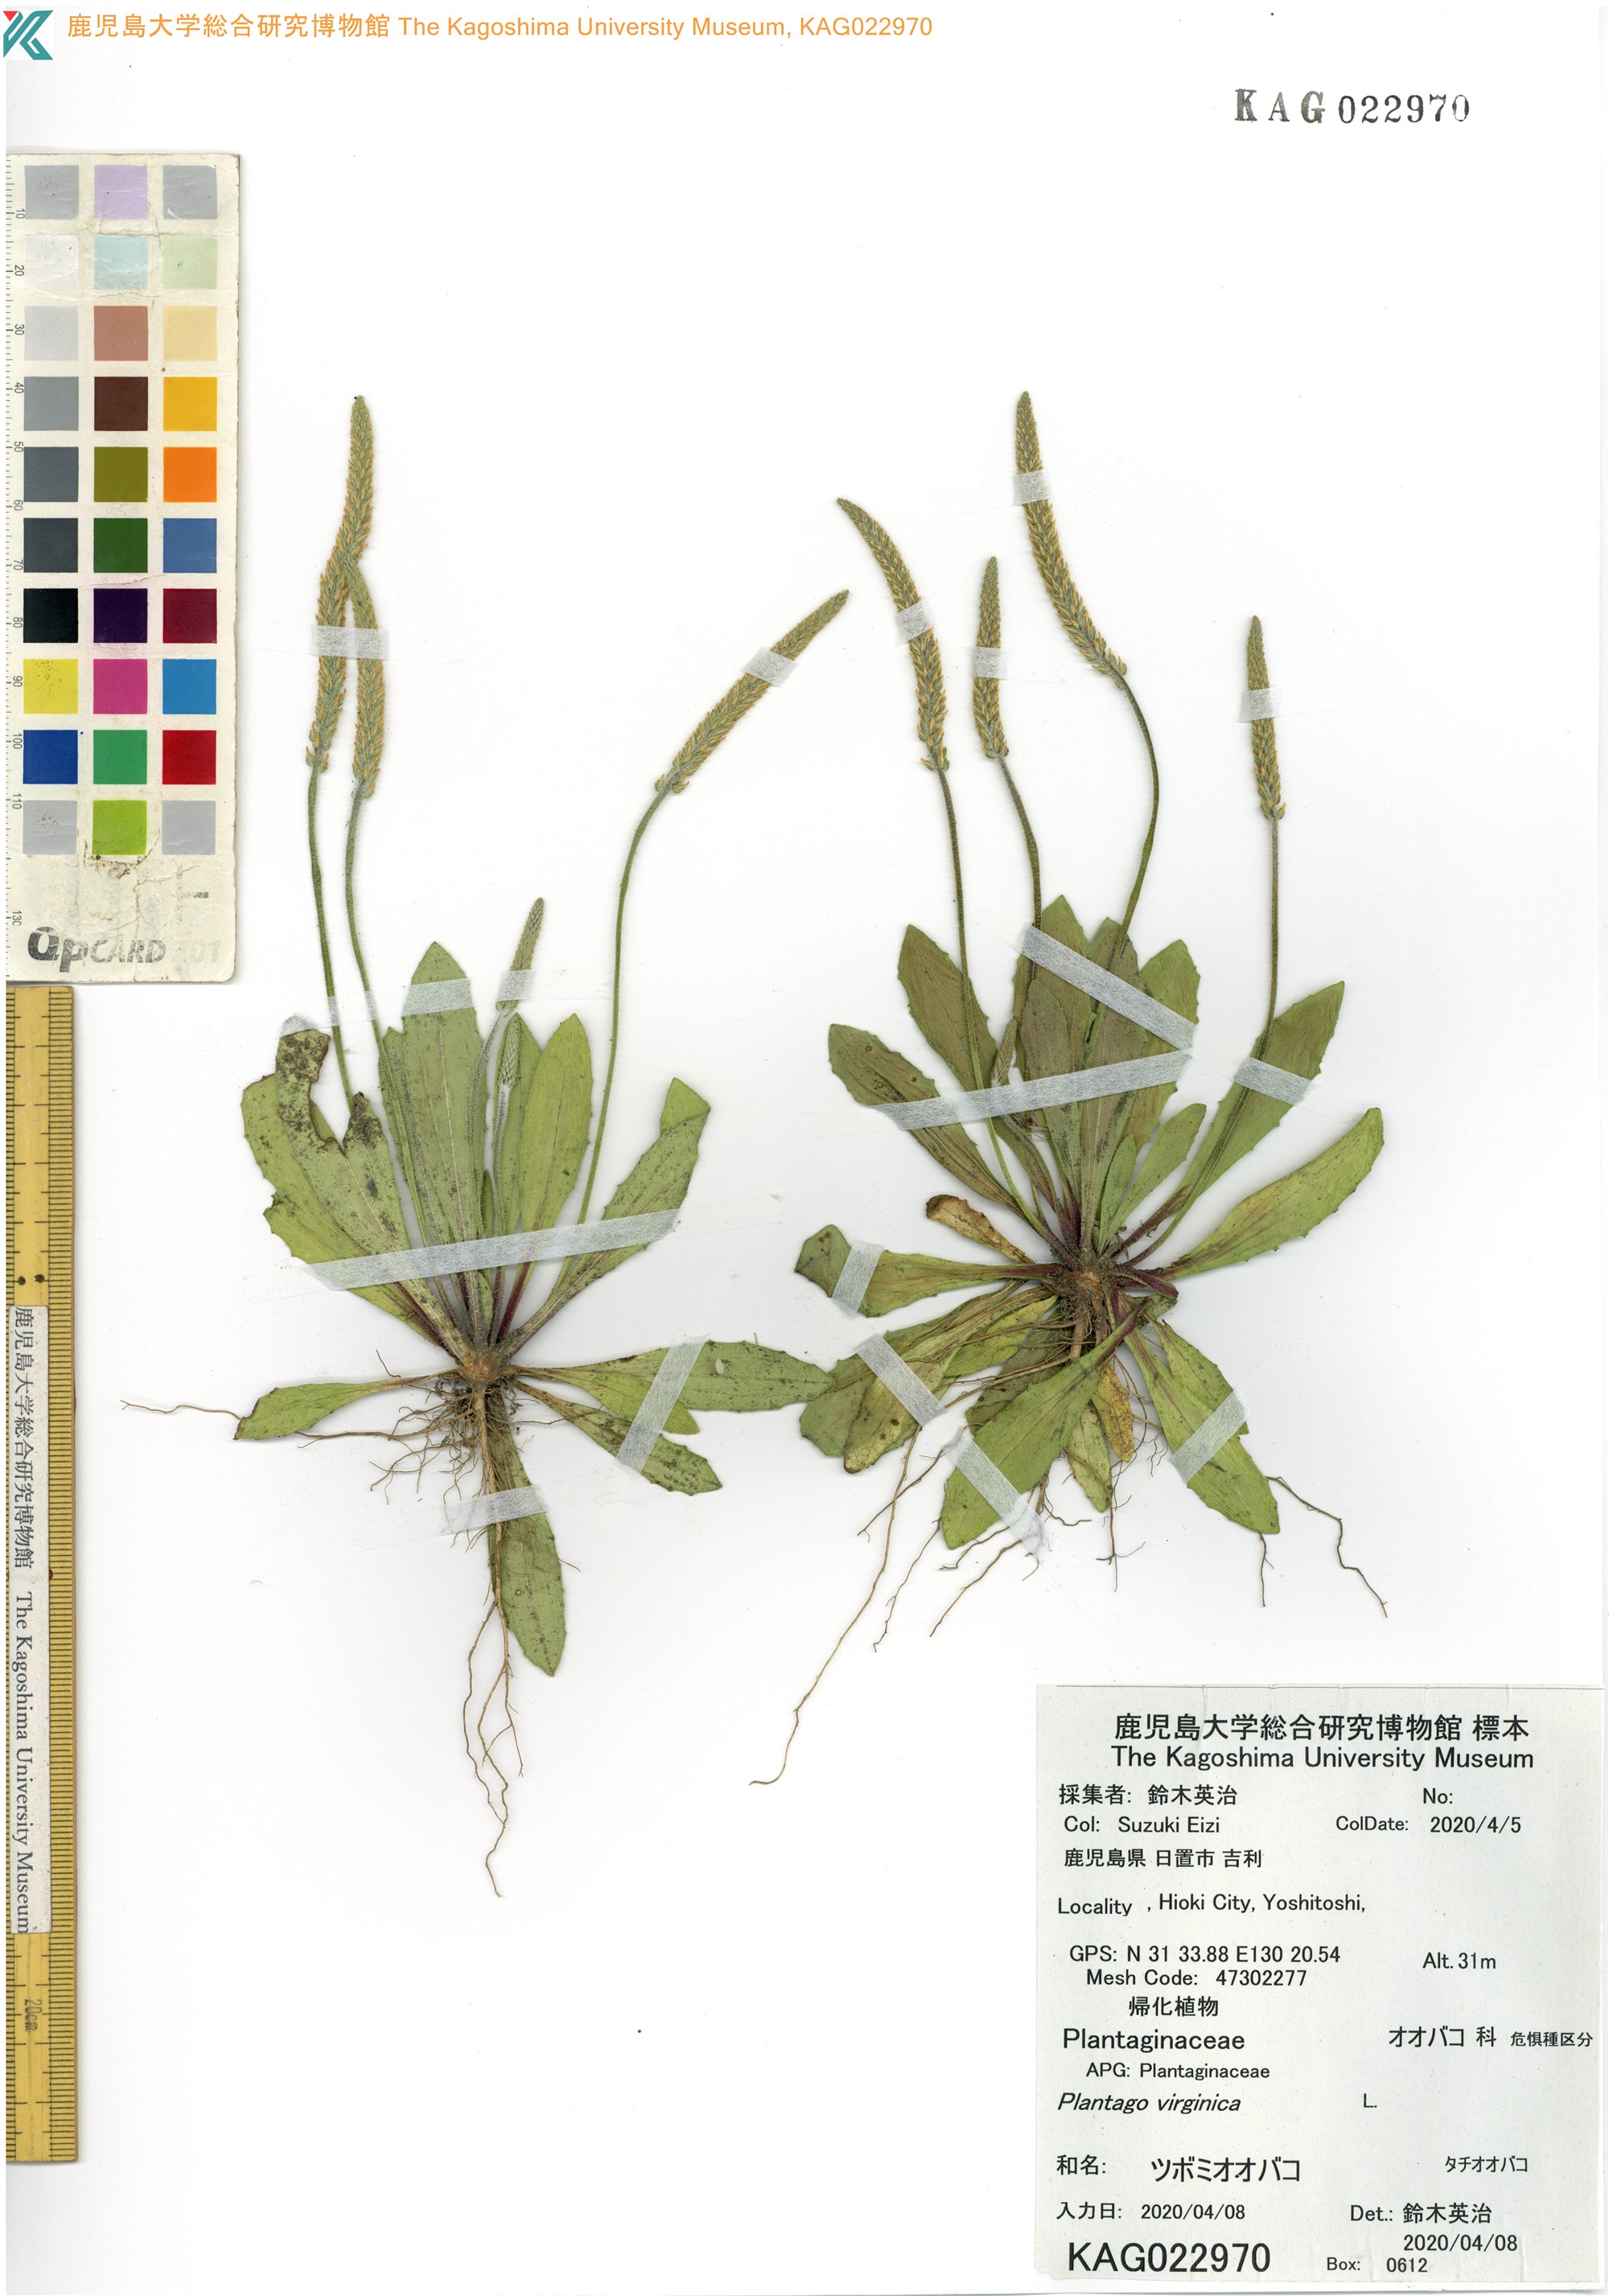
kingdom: Plantae
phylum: Tracheophyta
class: Magnoliopsida
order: Lamiales
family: Plantaginaceae
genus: Plantago
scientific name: Plantago virginica
